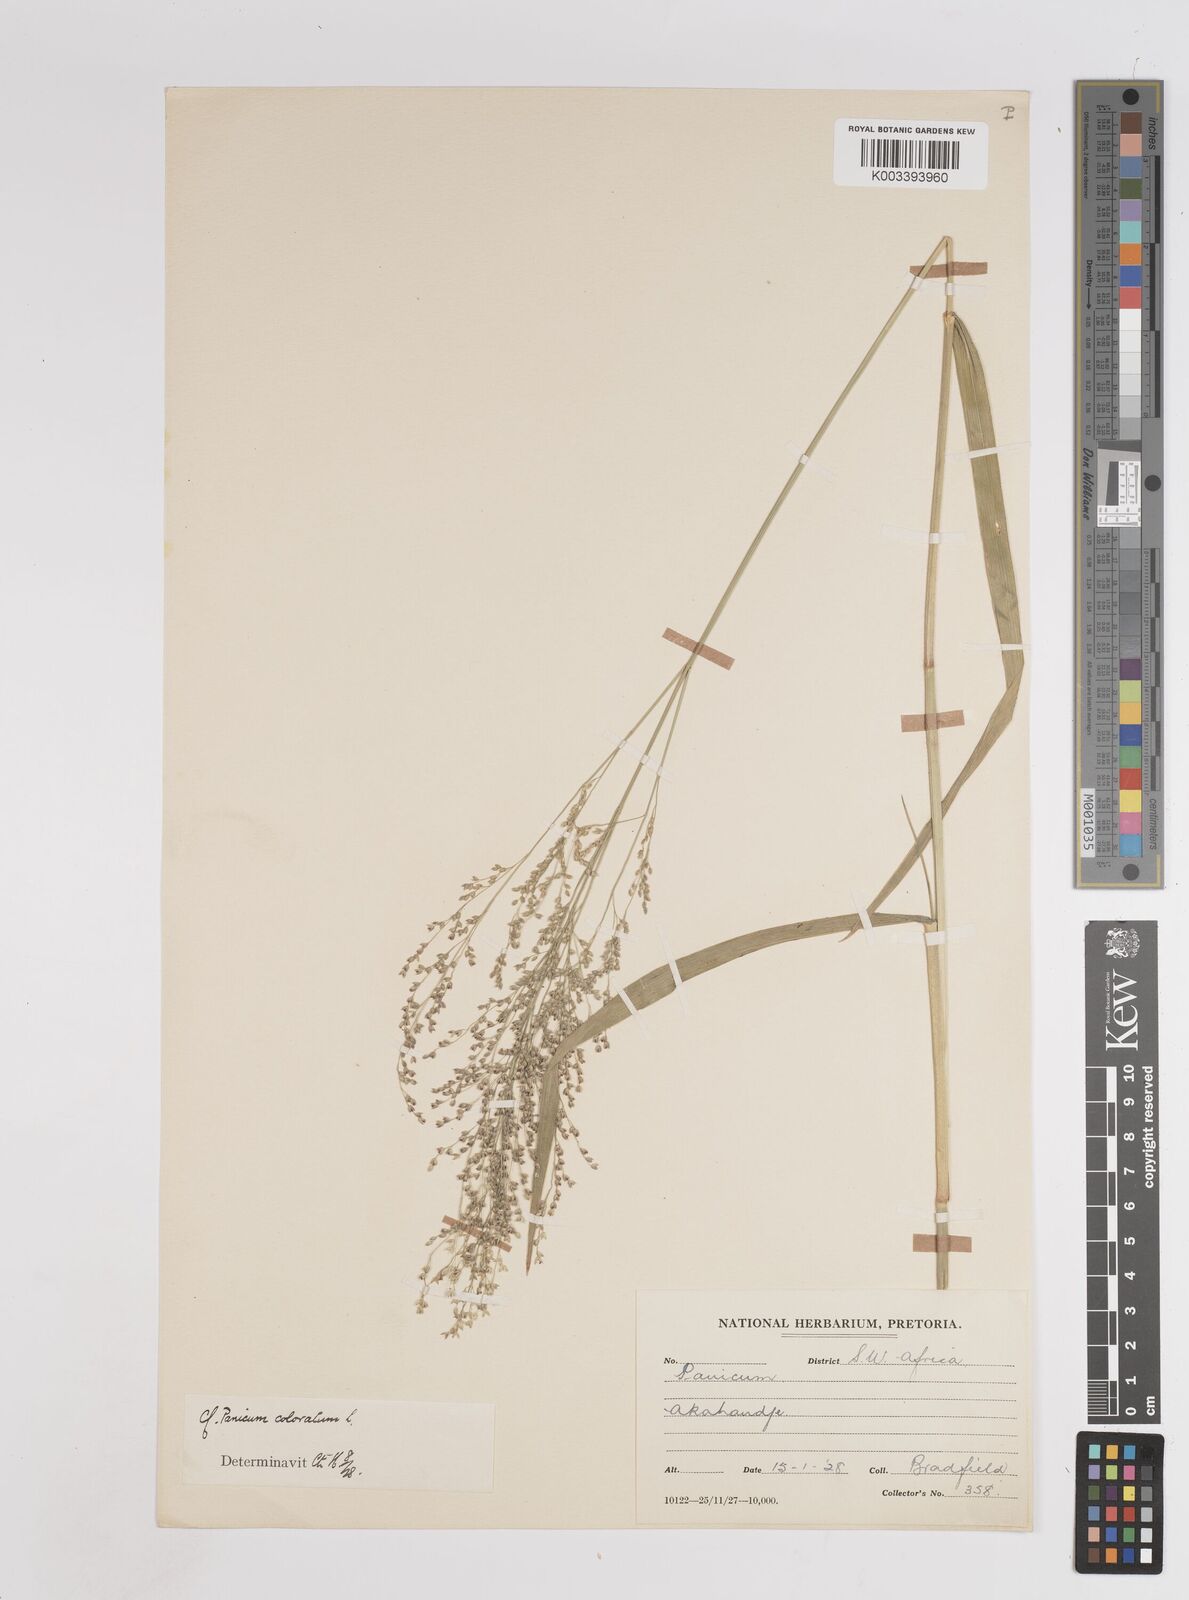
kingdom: Plantae
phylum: Tracheophyta
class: Liliopsida
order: Poales
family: Poaceae
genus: Panicum
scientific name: Panicum coloratum
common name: Kleingrass
